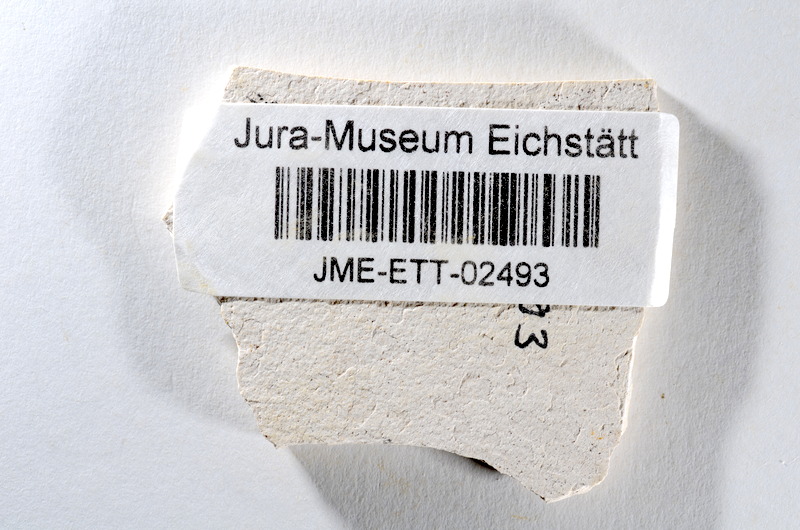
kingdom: Animalia
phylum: Chordata
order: Salmoniformes
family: Orthogonikleithridae
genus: Orthogonikleithrus
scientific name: Orthogonikleithrus hoelli
